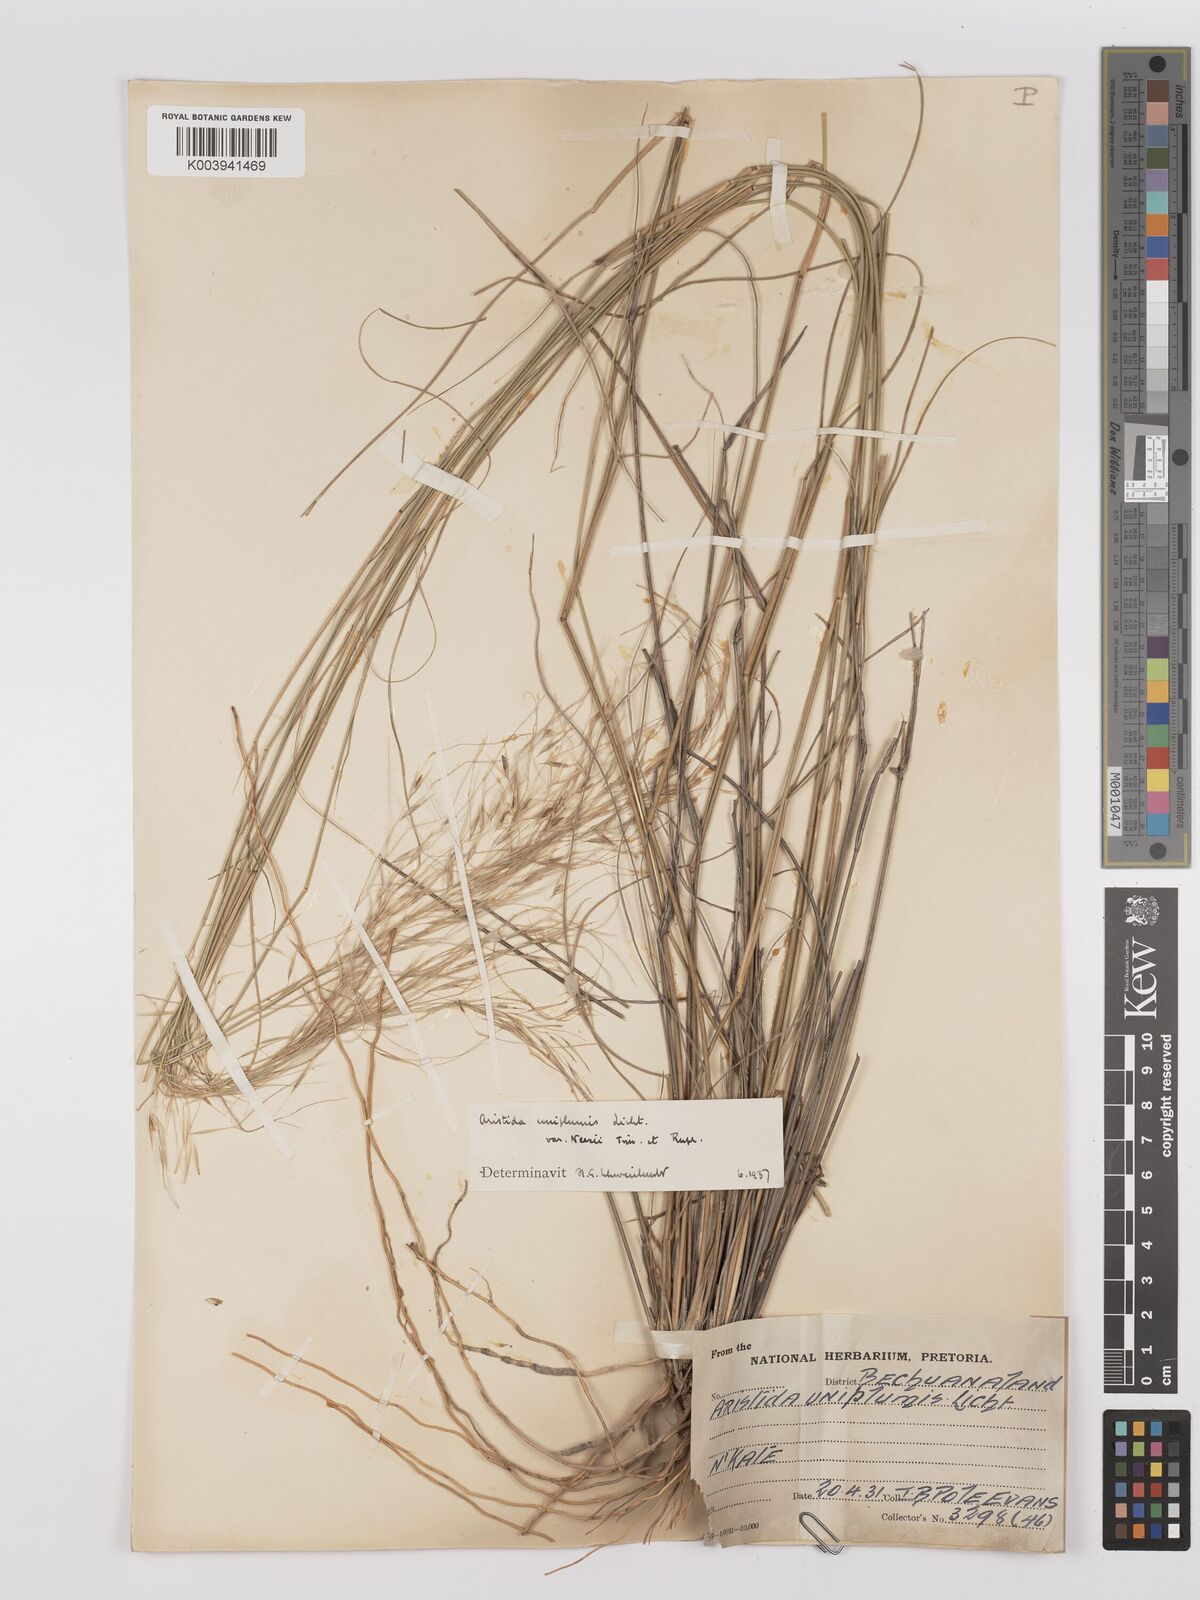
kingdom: Plantae
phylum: Tracheophyta
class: Liliopsida
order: Poales
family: Poaceae
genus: Stipagrostis
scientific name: Stipagrostis uniplumis
